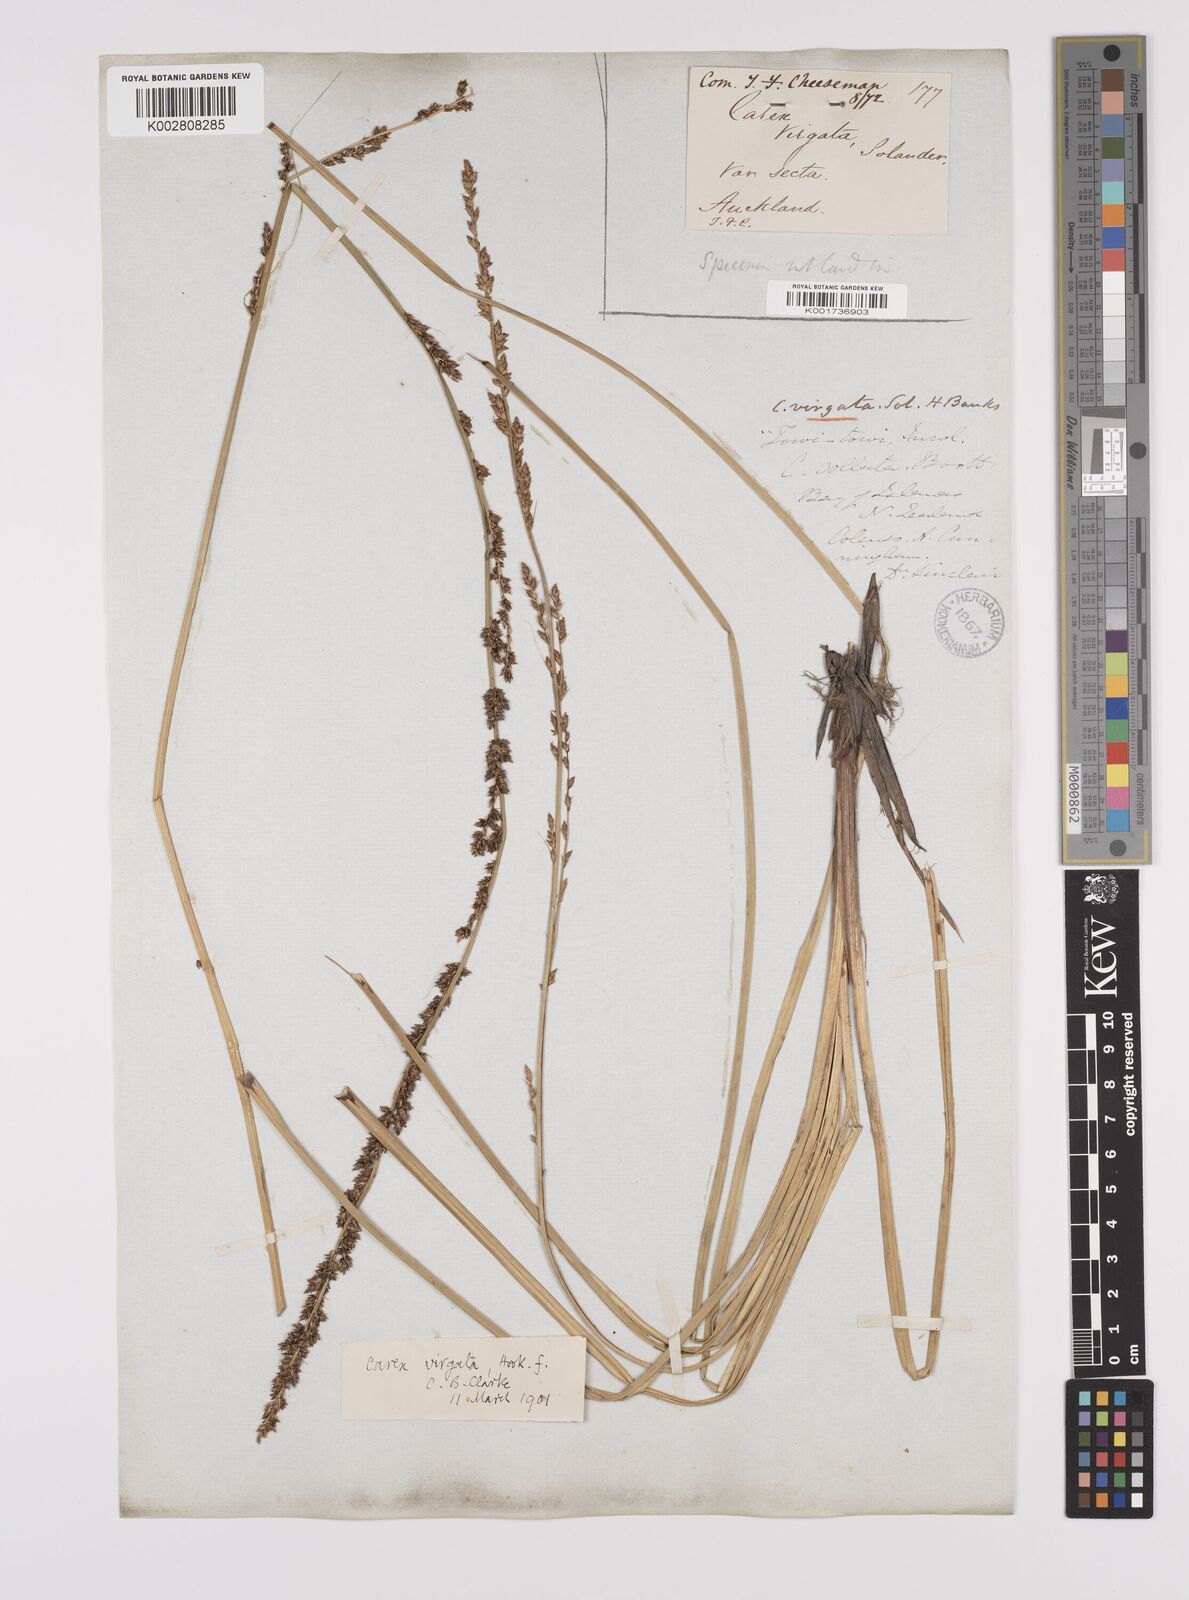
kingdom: Plantae
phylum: Tracheophyta
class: Liliopsida
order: Poales
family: Cyperaceae
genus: Carex
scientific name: Carex appressa
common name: Tussock sedge
